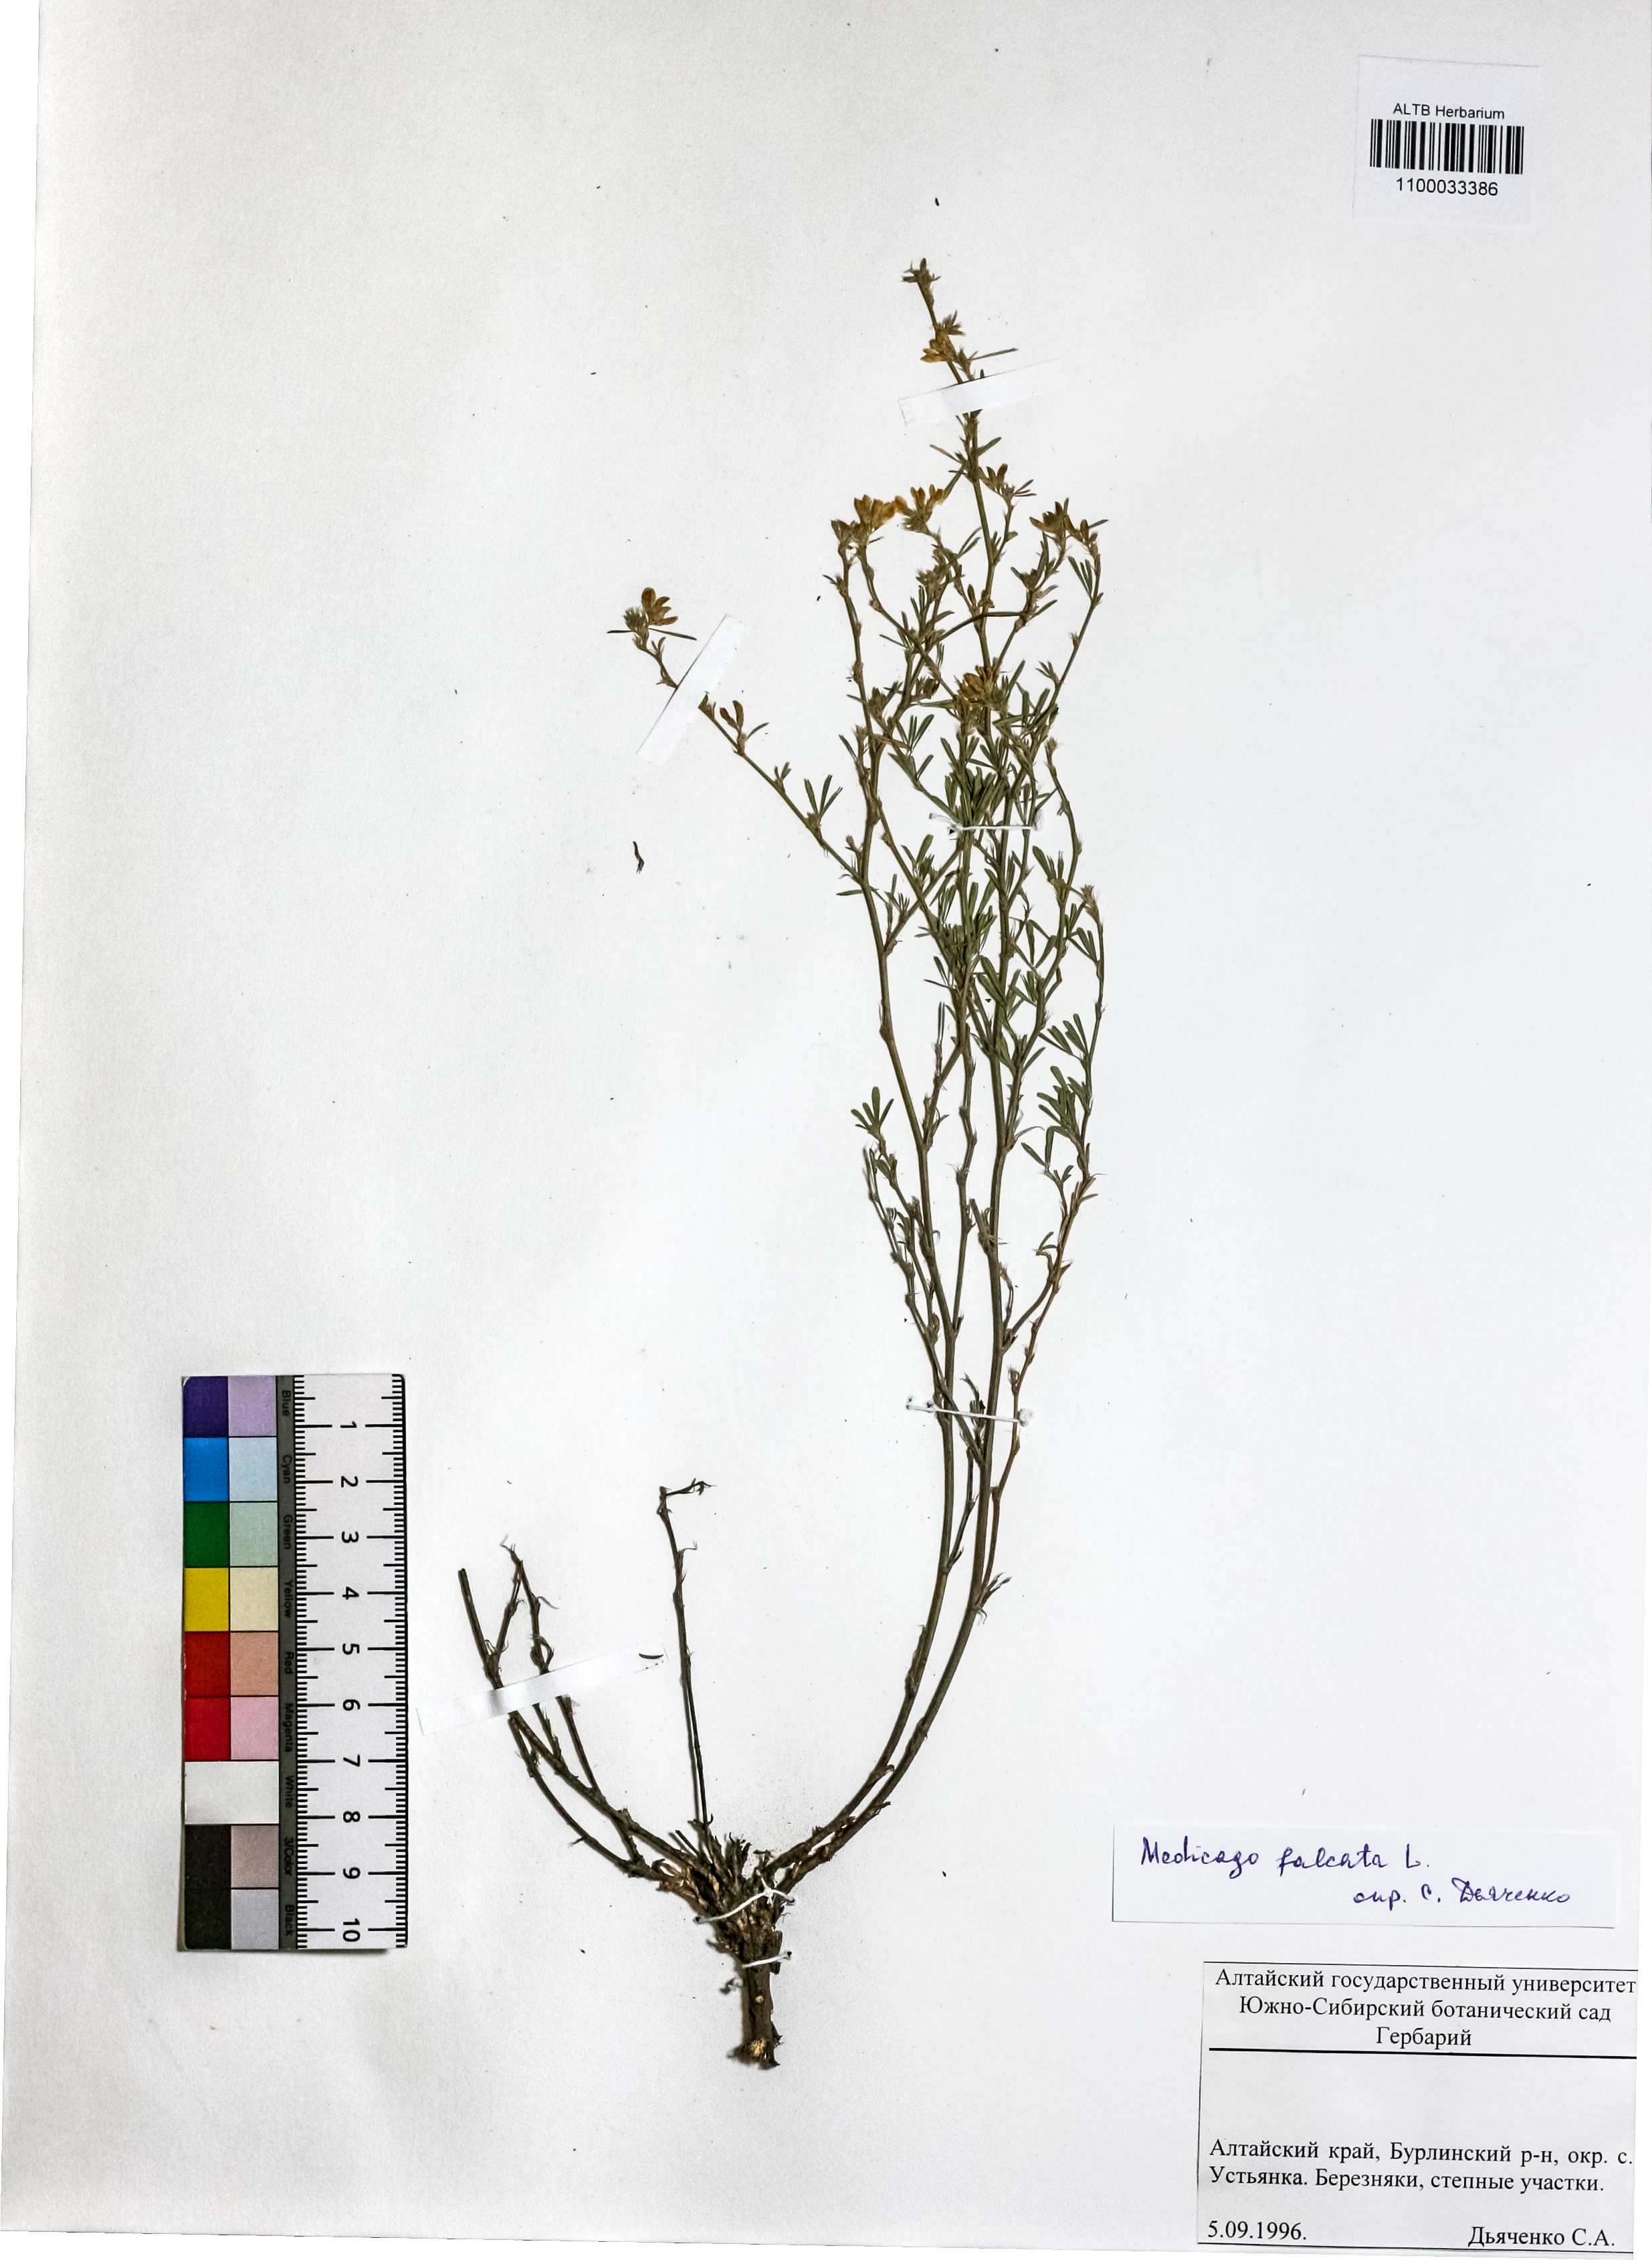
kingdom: Plantae
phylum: Tracheophyta
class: Magnoliopsida
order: Fabales
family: Fabaceae
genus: Medicago
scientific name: Medicago falcata
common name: Sickle medick
